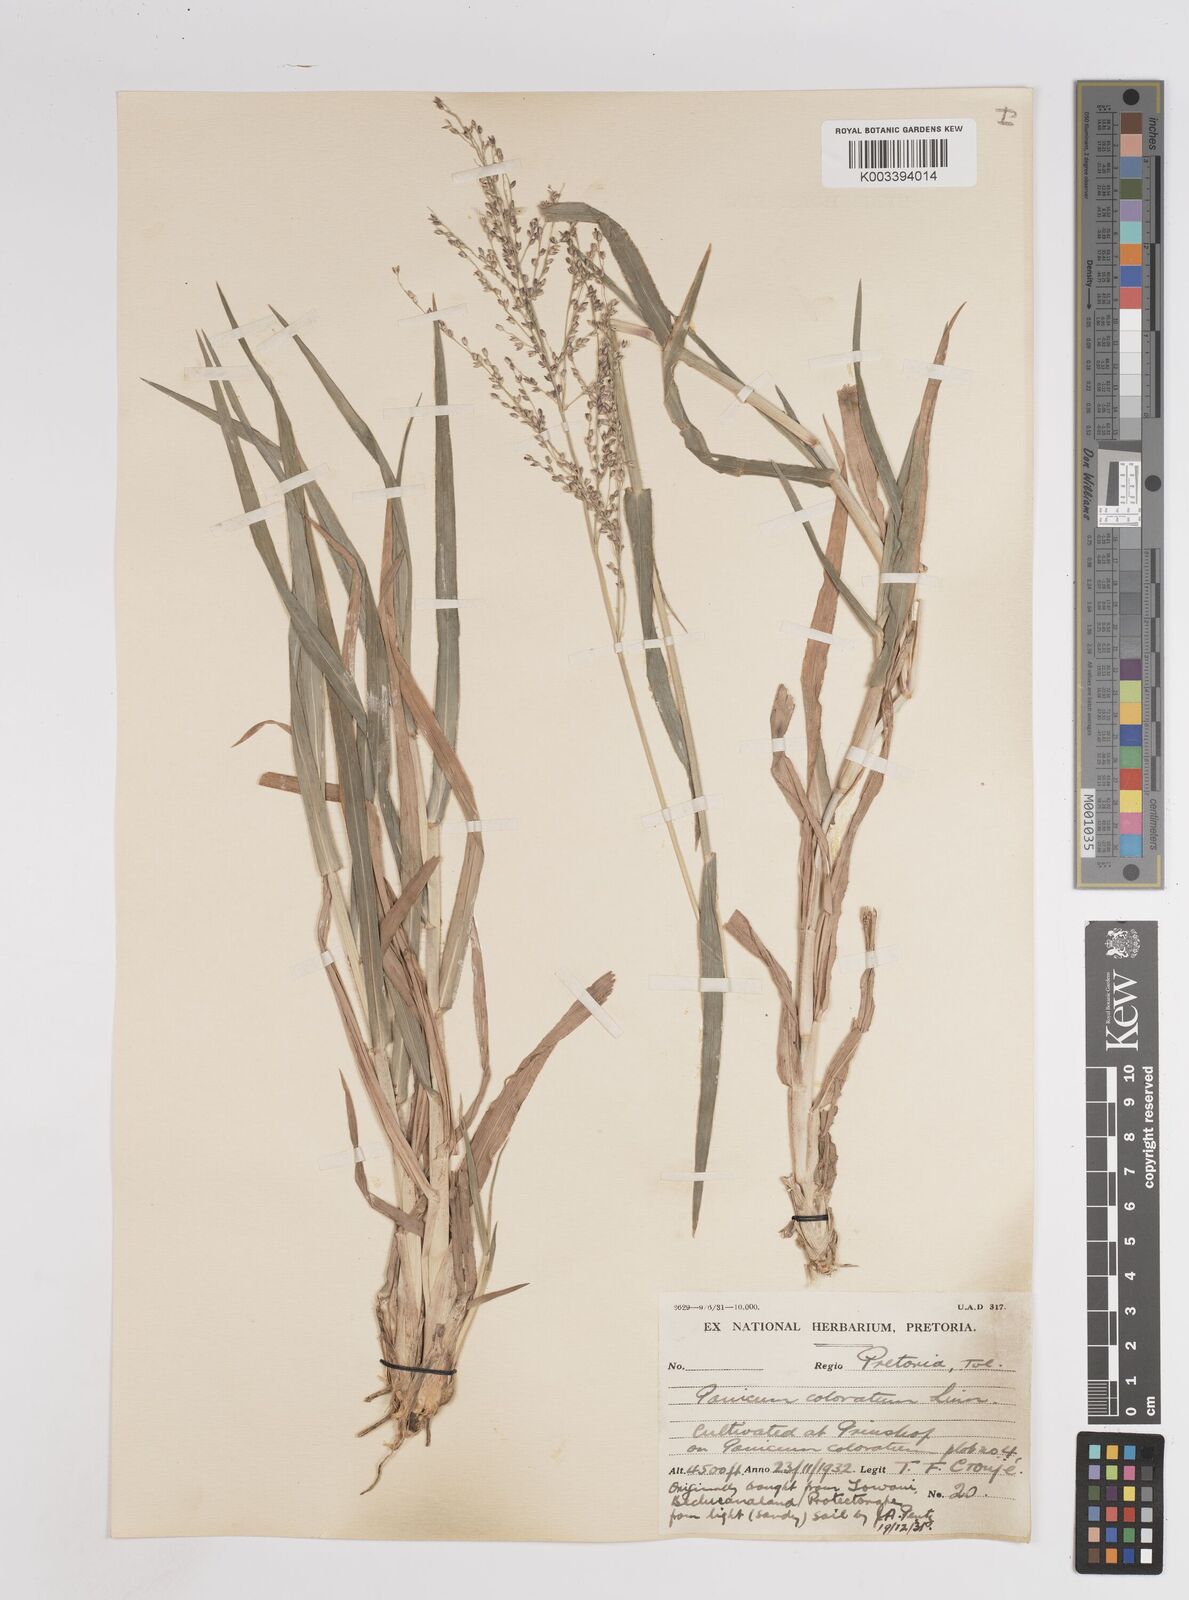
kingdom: Plantae
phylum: Tracheophyta
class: Liliopsida
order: Poales
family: Poaceae
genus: Panicum
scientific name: Panicum coloratum
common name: Kleingrass
